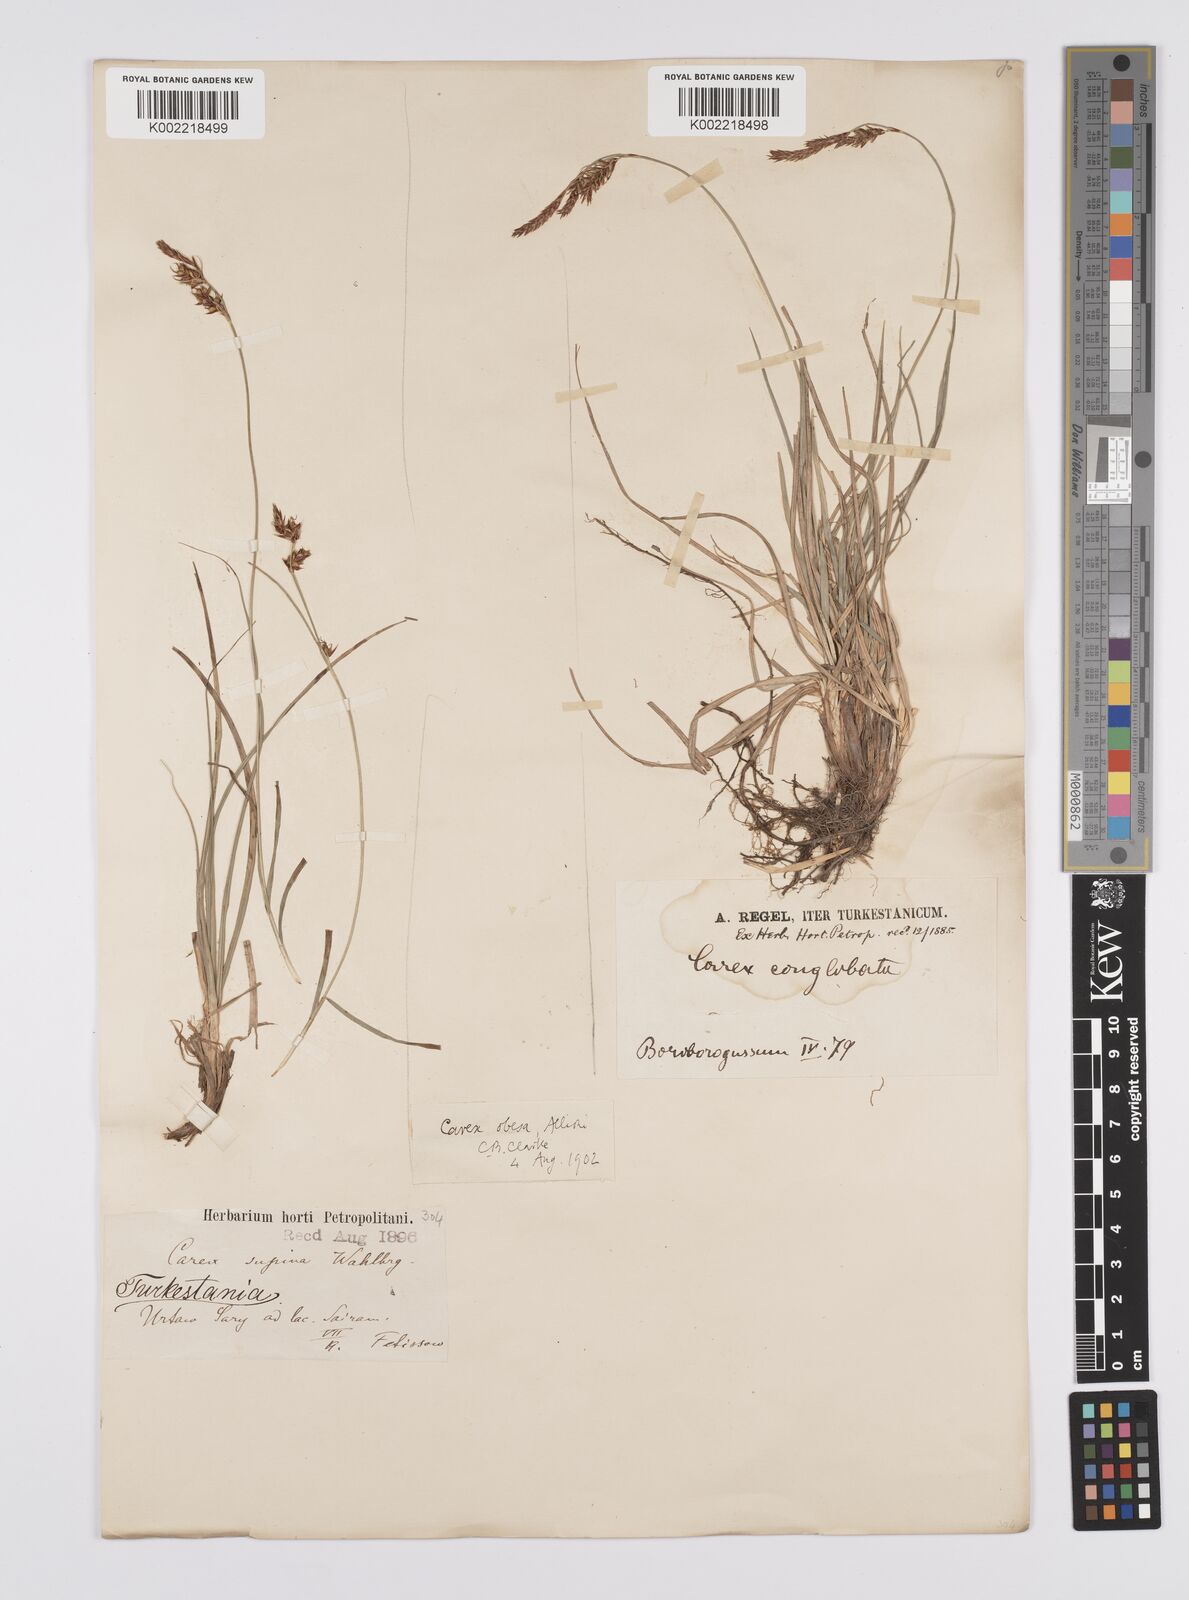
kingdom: Plantae
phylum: Tracheophyta
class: Liliopsida
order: Poales
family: Cyperaceae
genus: Carex
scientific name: Carex liparocarpos
